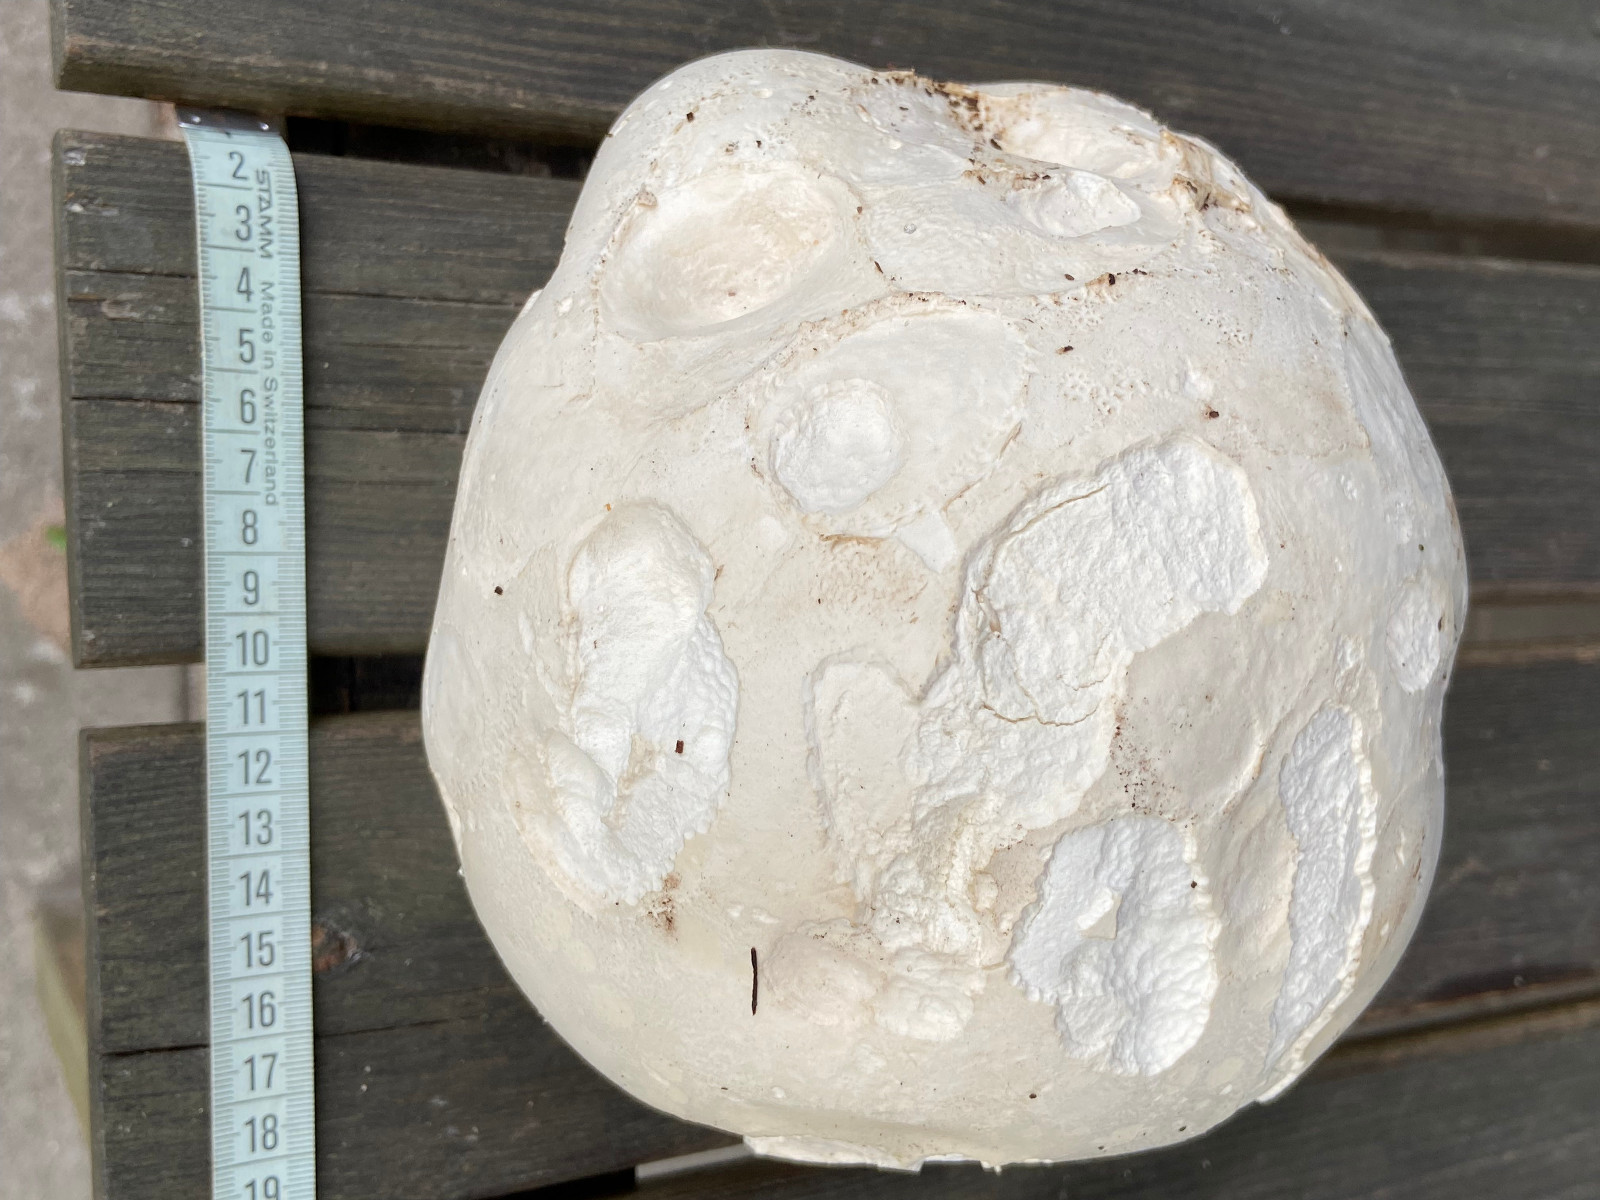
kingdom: Fungi
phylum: Basidiomycota
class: Agaricomycetes
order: Agaricales
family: Lycoperdaceae
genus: Calvatia
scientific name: Calvatia gigantea
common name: kæmpestøvbold
